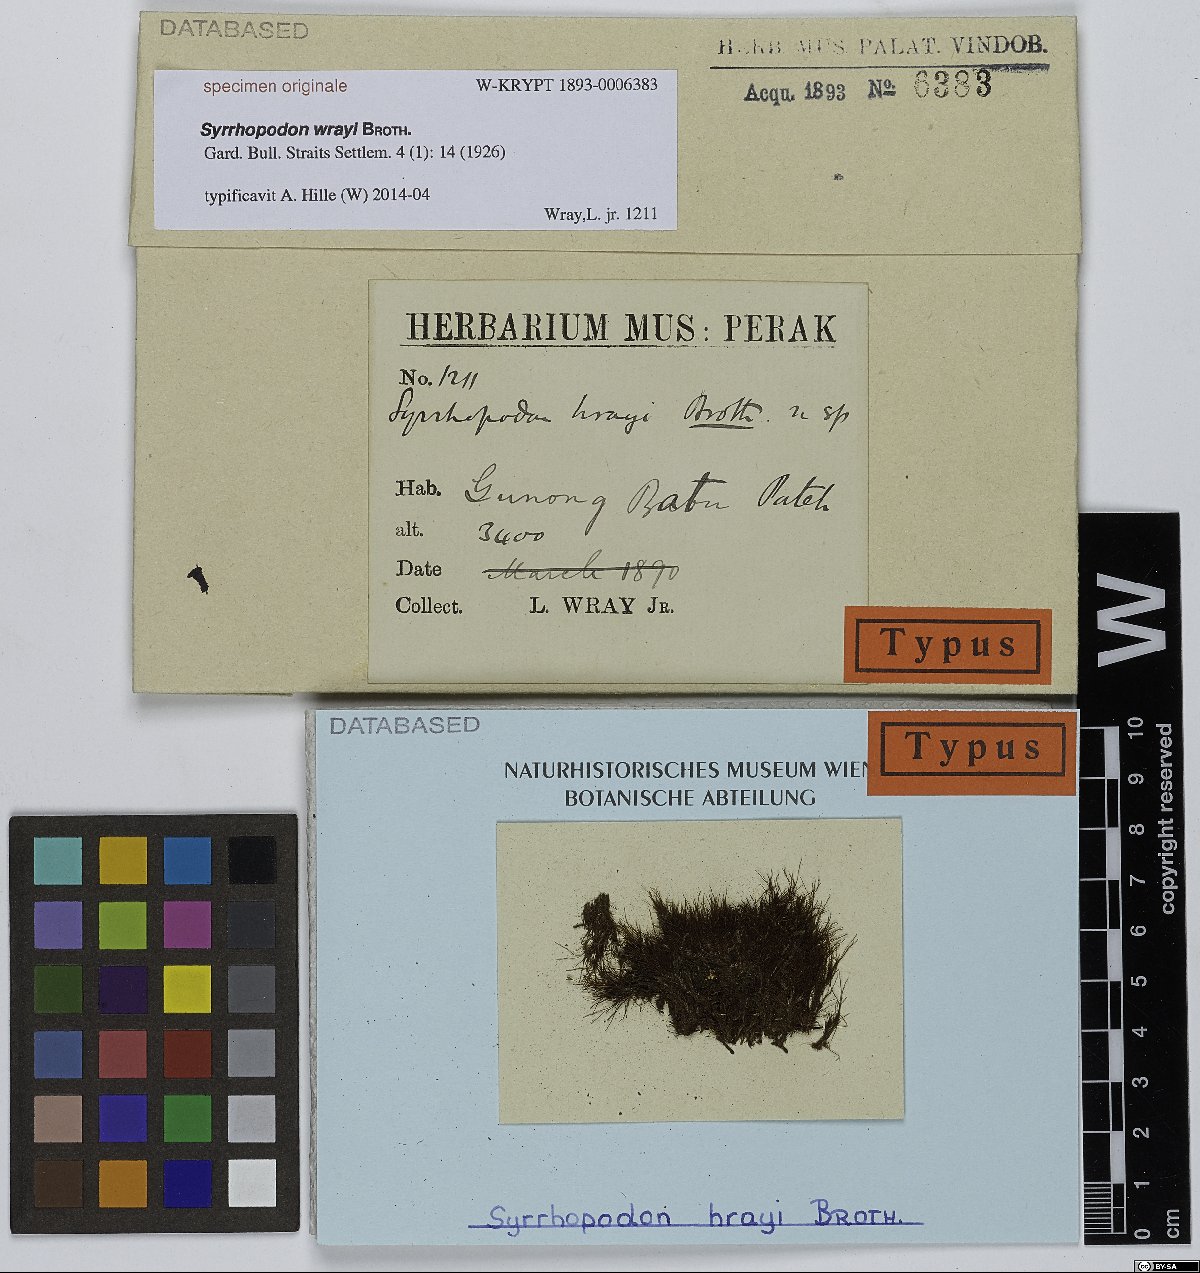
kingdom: Plantae
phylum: Bryophyta
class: Bryopsida
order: Dicranales
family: Calymperaceae
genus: Syrrhopodon
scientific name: Syrrhopodon
